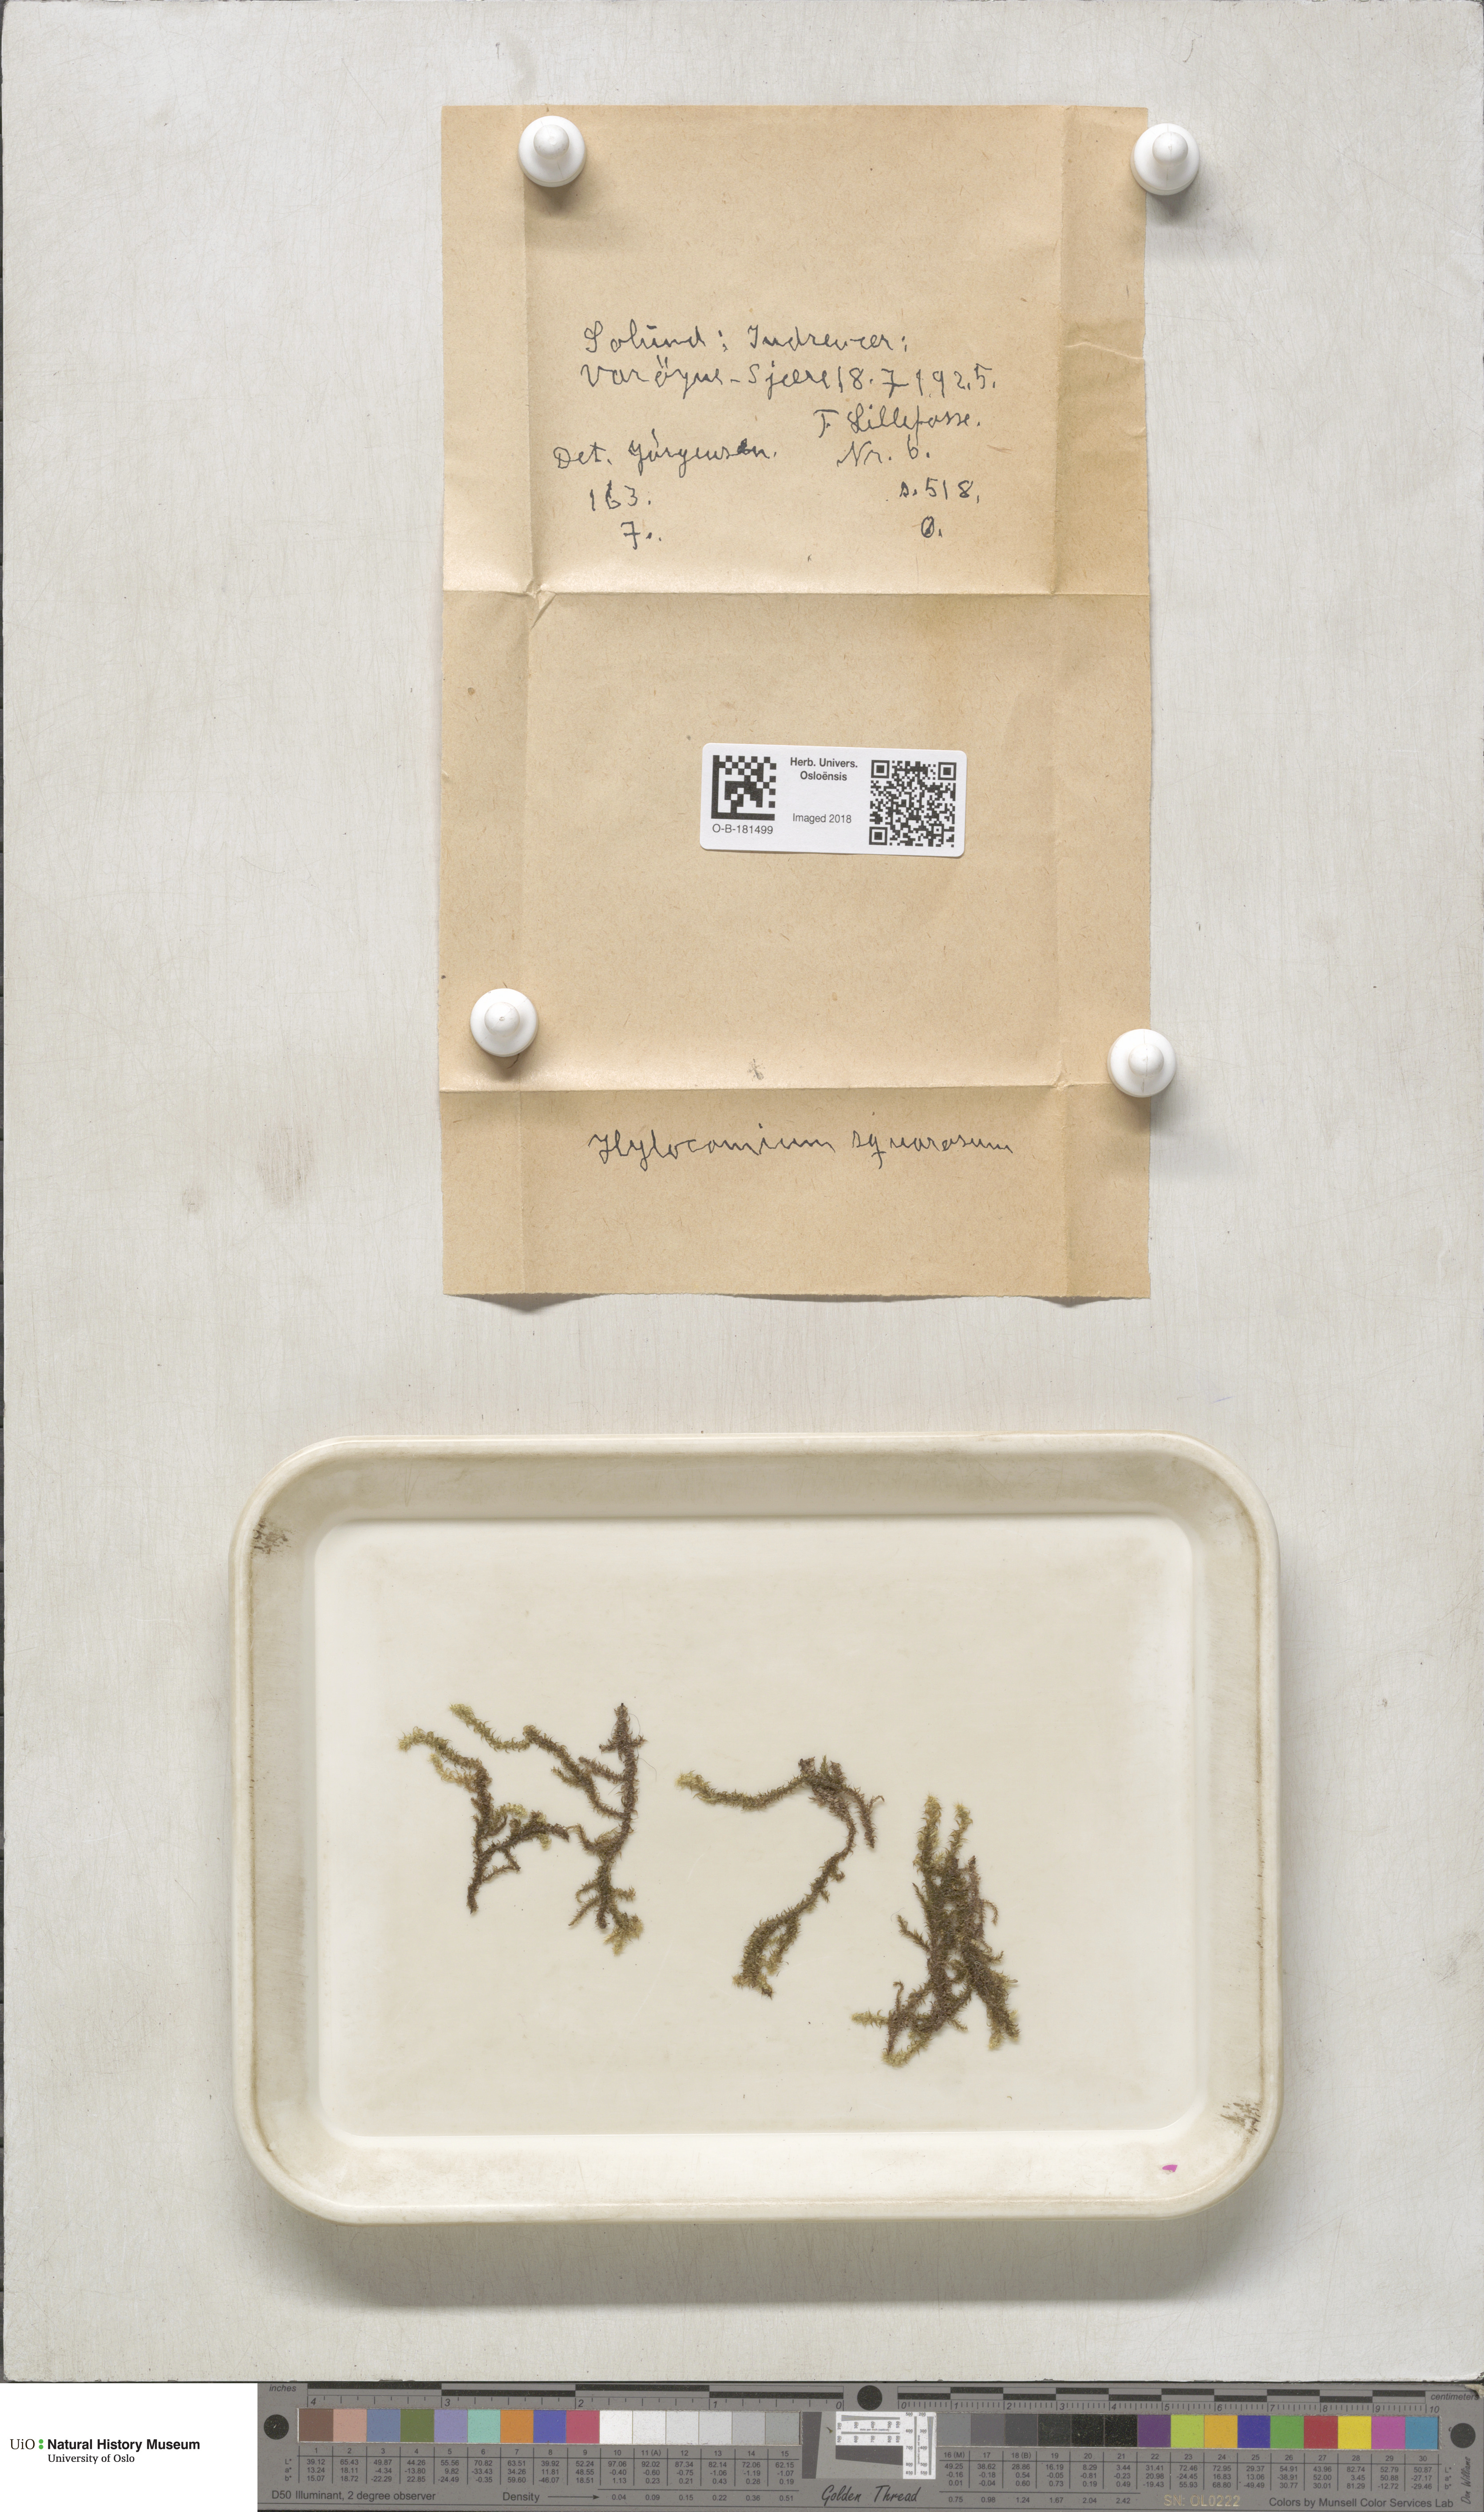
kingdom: Plantae
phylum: Bryophyta
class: Bryopsida
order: Hypnales
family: Hylocomiaceae
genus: Rhytidiadelphus
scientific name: Rhytidiadelphus squarrosus
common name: Springy turf-moss
